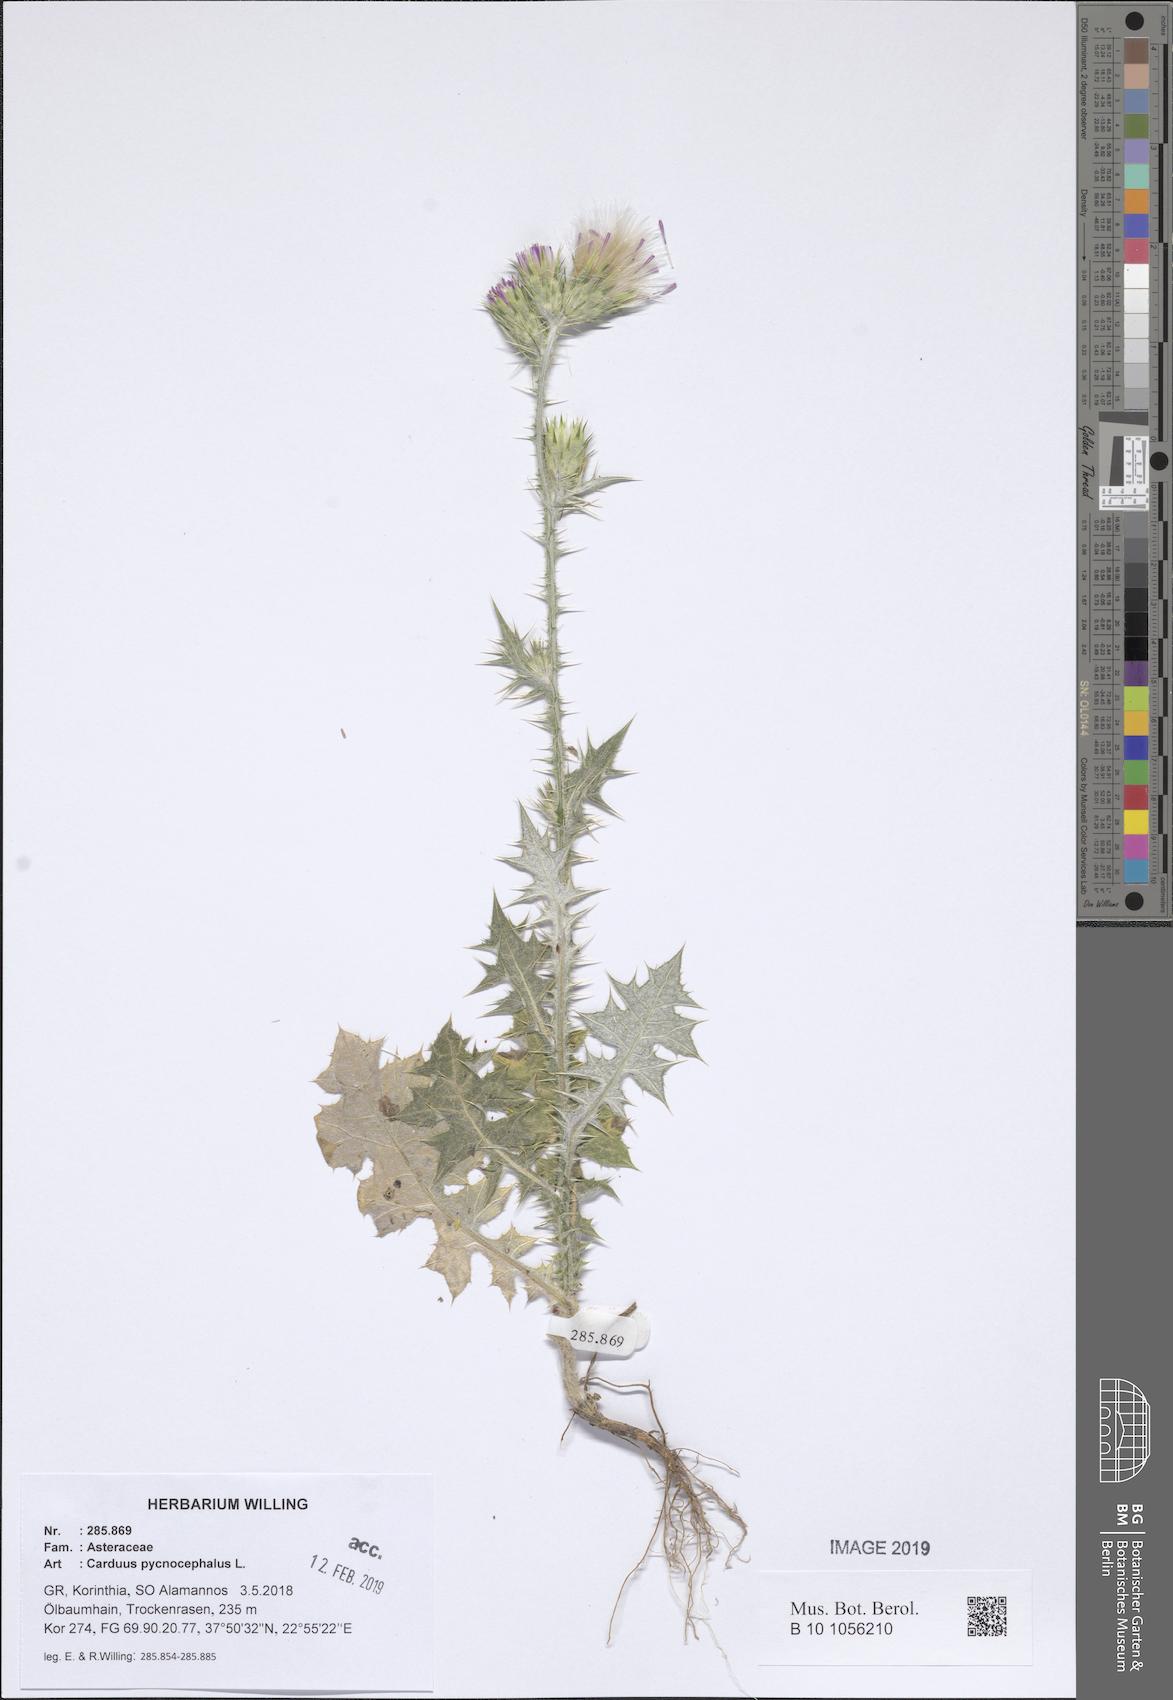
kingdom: Plantae
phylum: Tracheophyta
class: Magnoliopsida
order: Asterales
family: Asteraceae
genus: Carduus
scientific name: Carduus pycnocephalus
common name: Plymouth thistle
